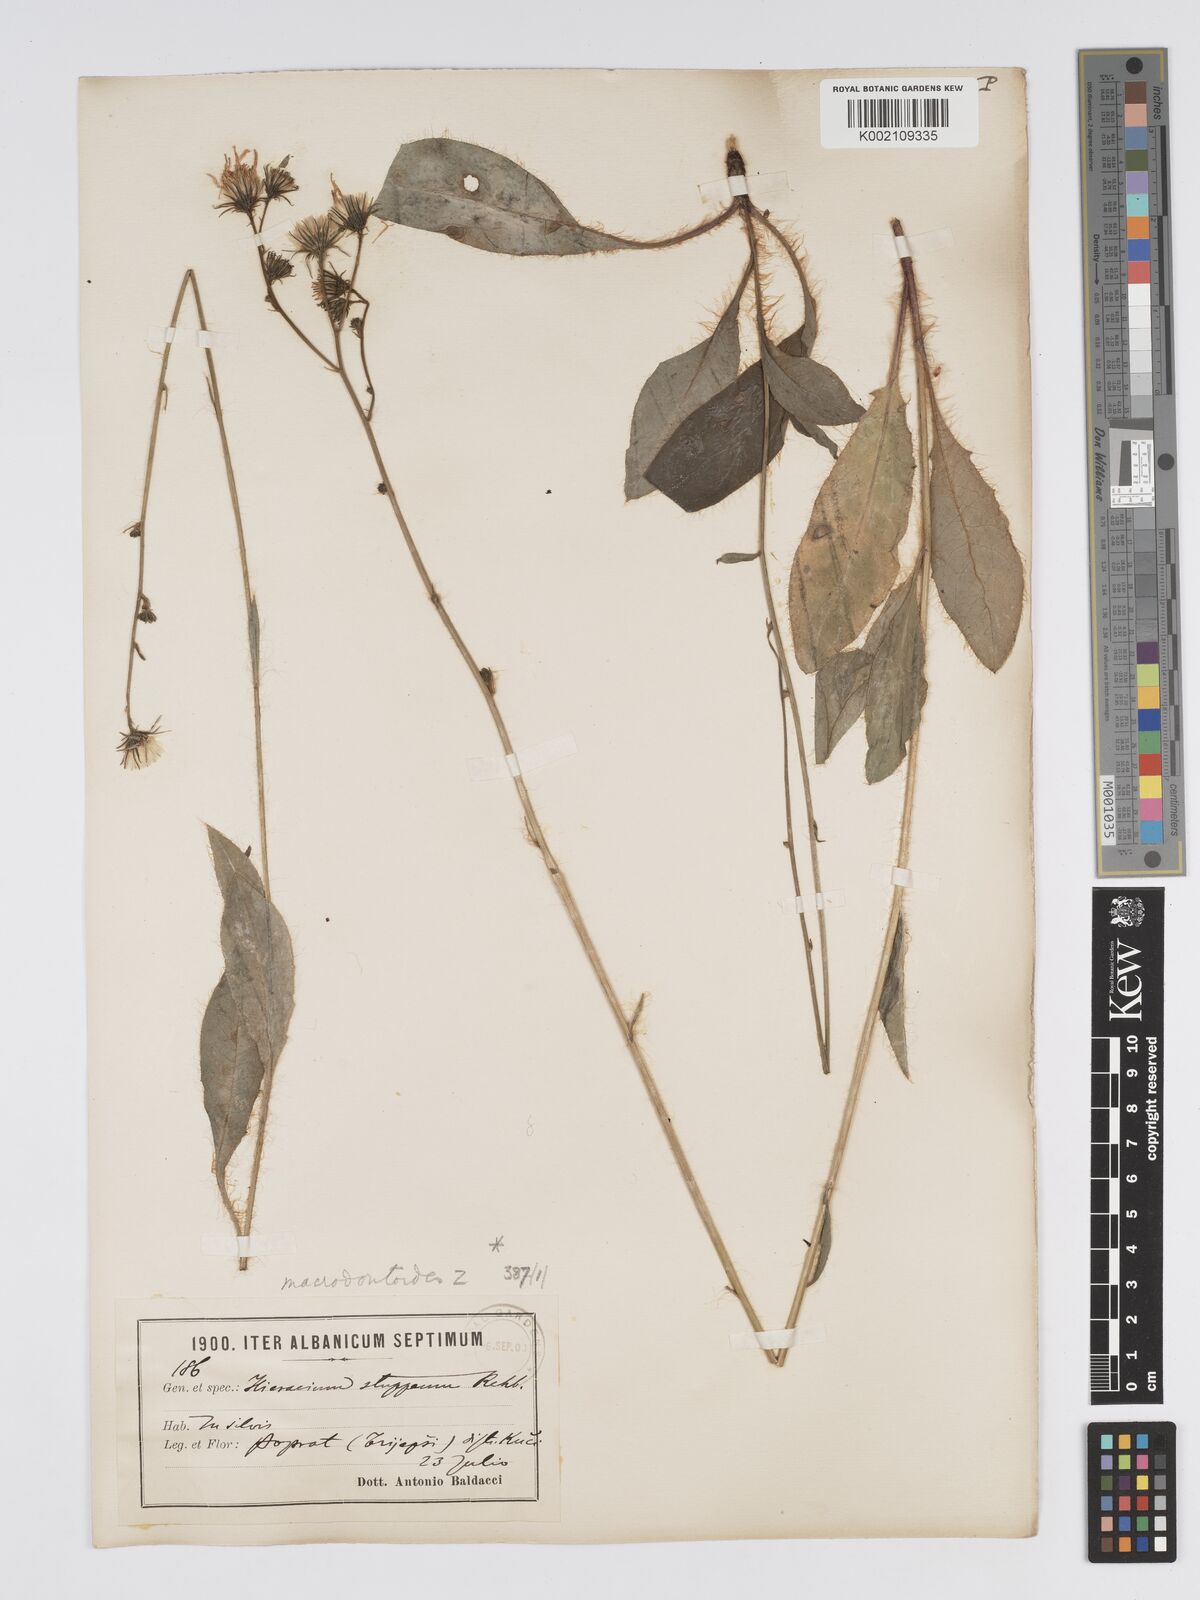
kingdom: Plantae
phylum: Tracheophyta
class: Magnoliopsida
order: Asterales
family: Asteraceae
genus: Hieracium
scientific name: Hieracium macrodontoides
